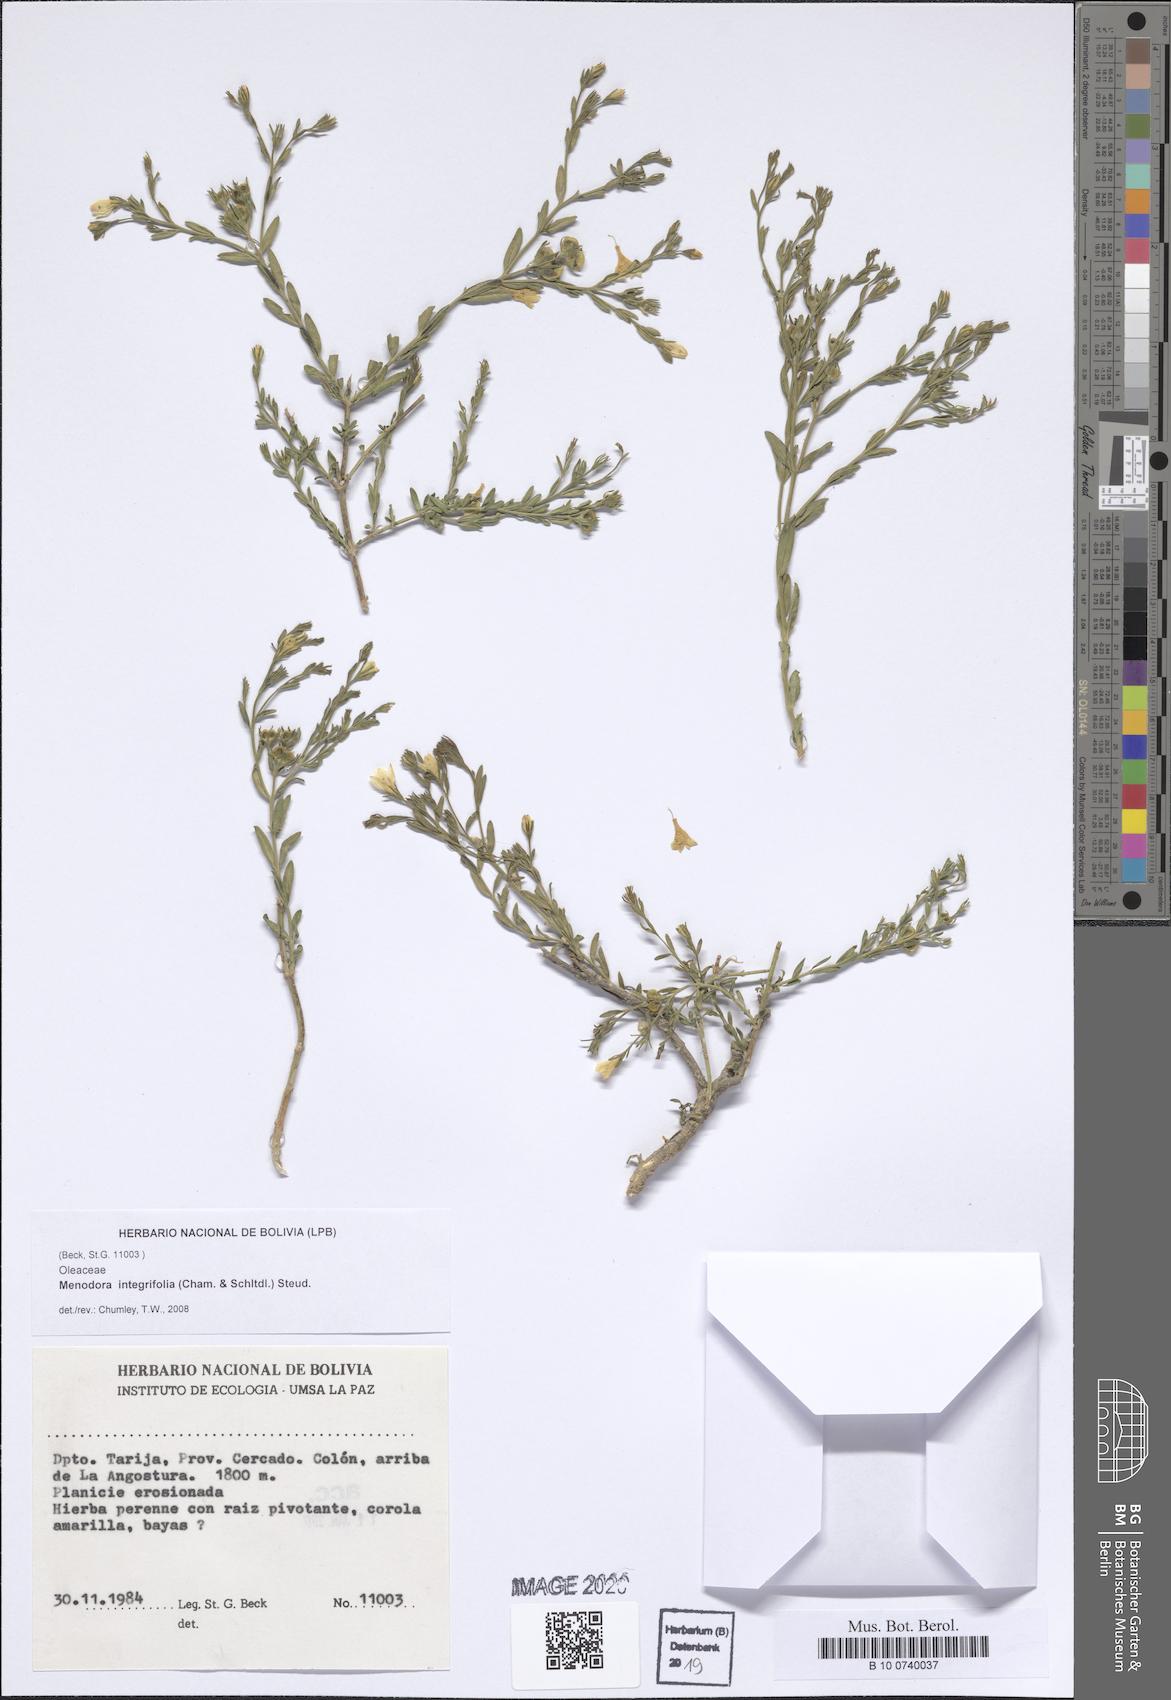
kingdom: Plantae
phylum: Tracheophyta
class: Magnoliopsida
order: Lamiales
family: Oleaceae
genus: Menodora
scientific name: Menodora integrifolia
